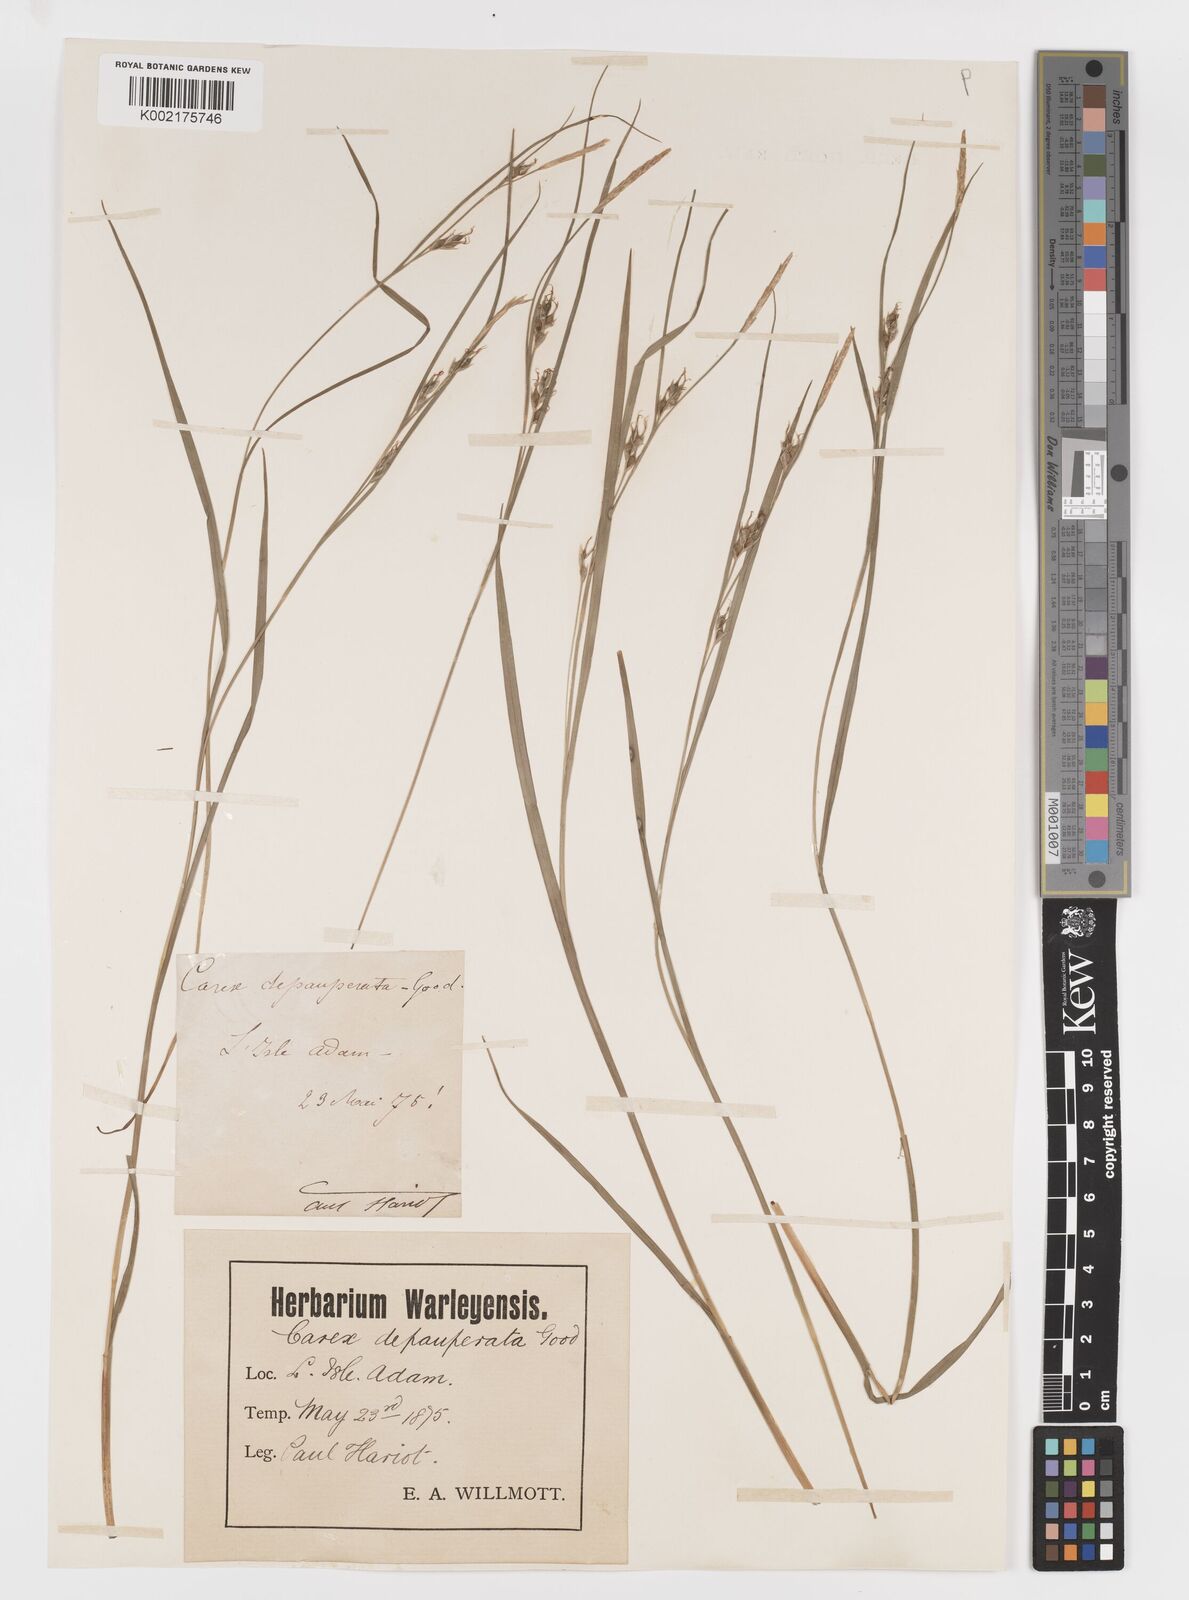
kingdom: Plantae
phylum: Tracheophyta
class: Liliopsida
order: Poales
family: Cyperaceae
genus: Carex
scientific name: Carex
